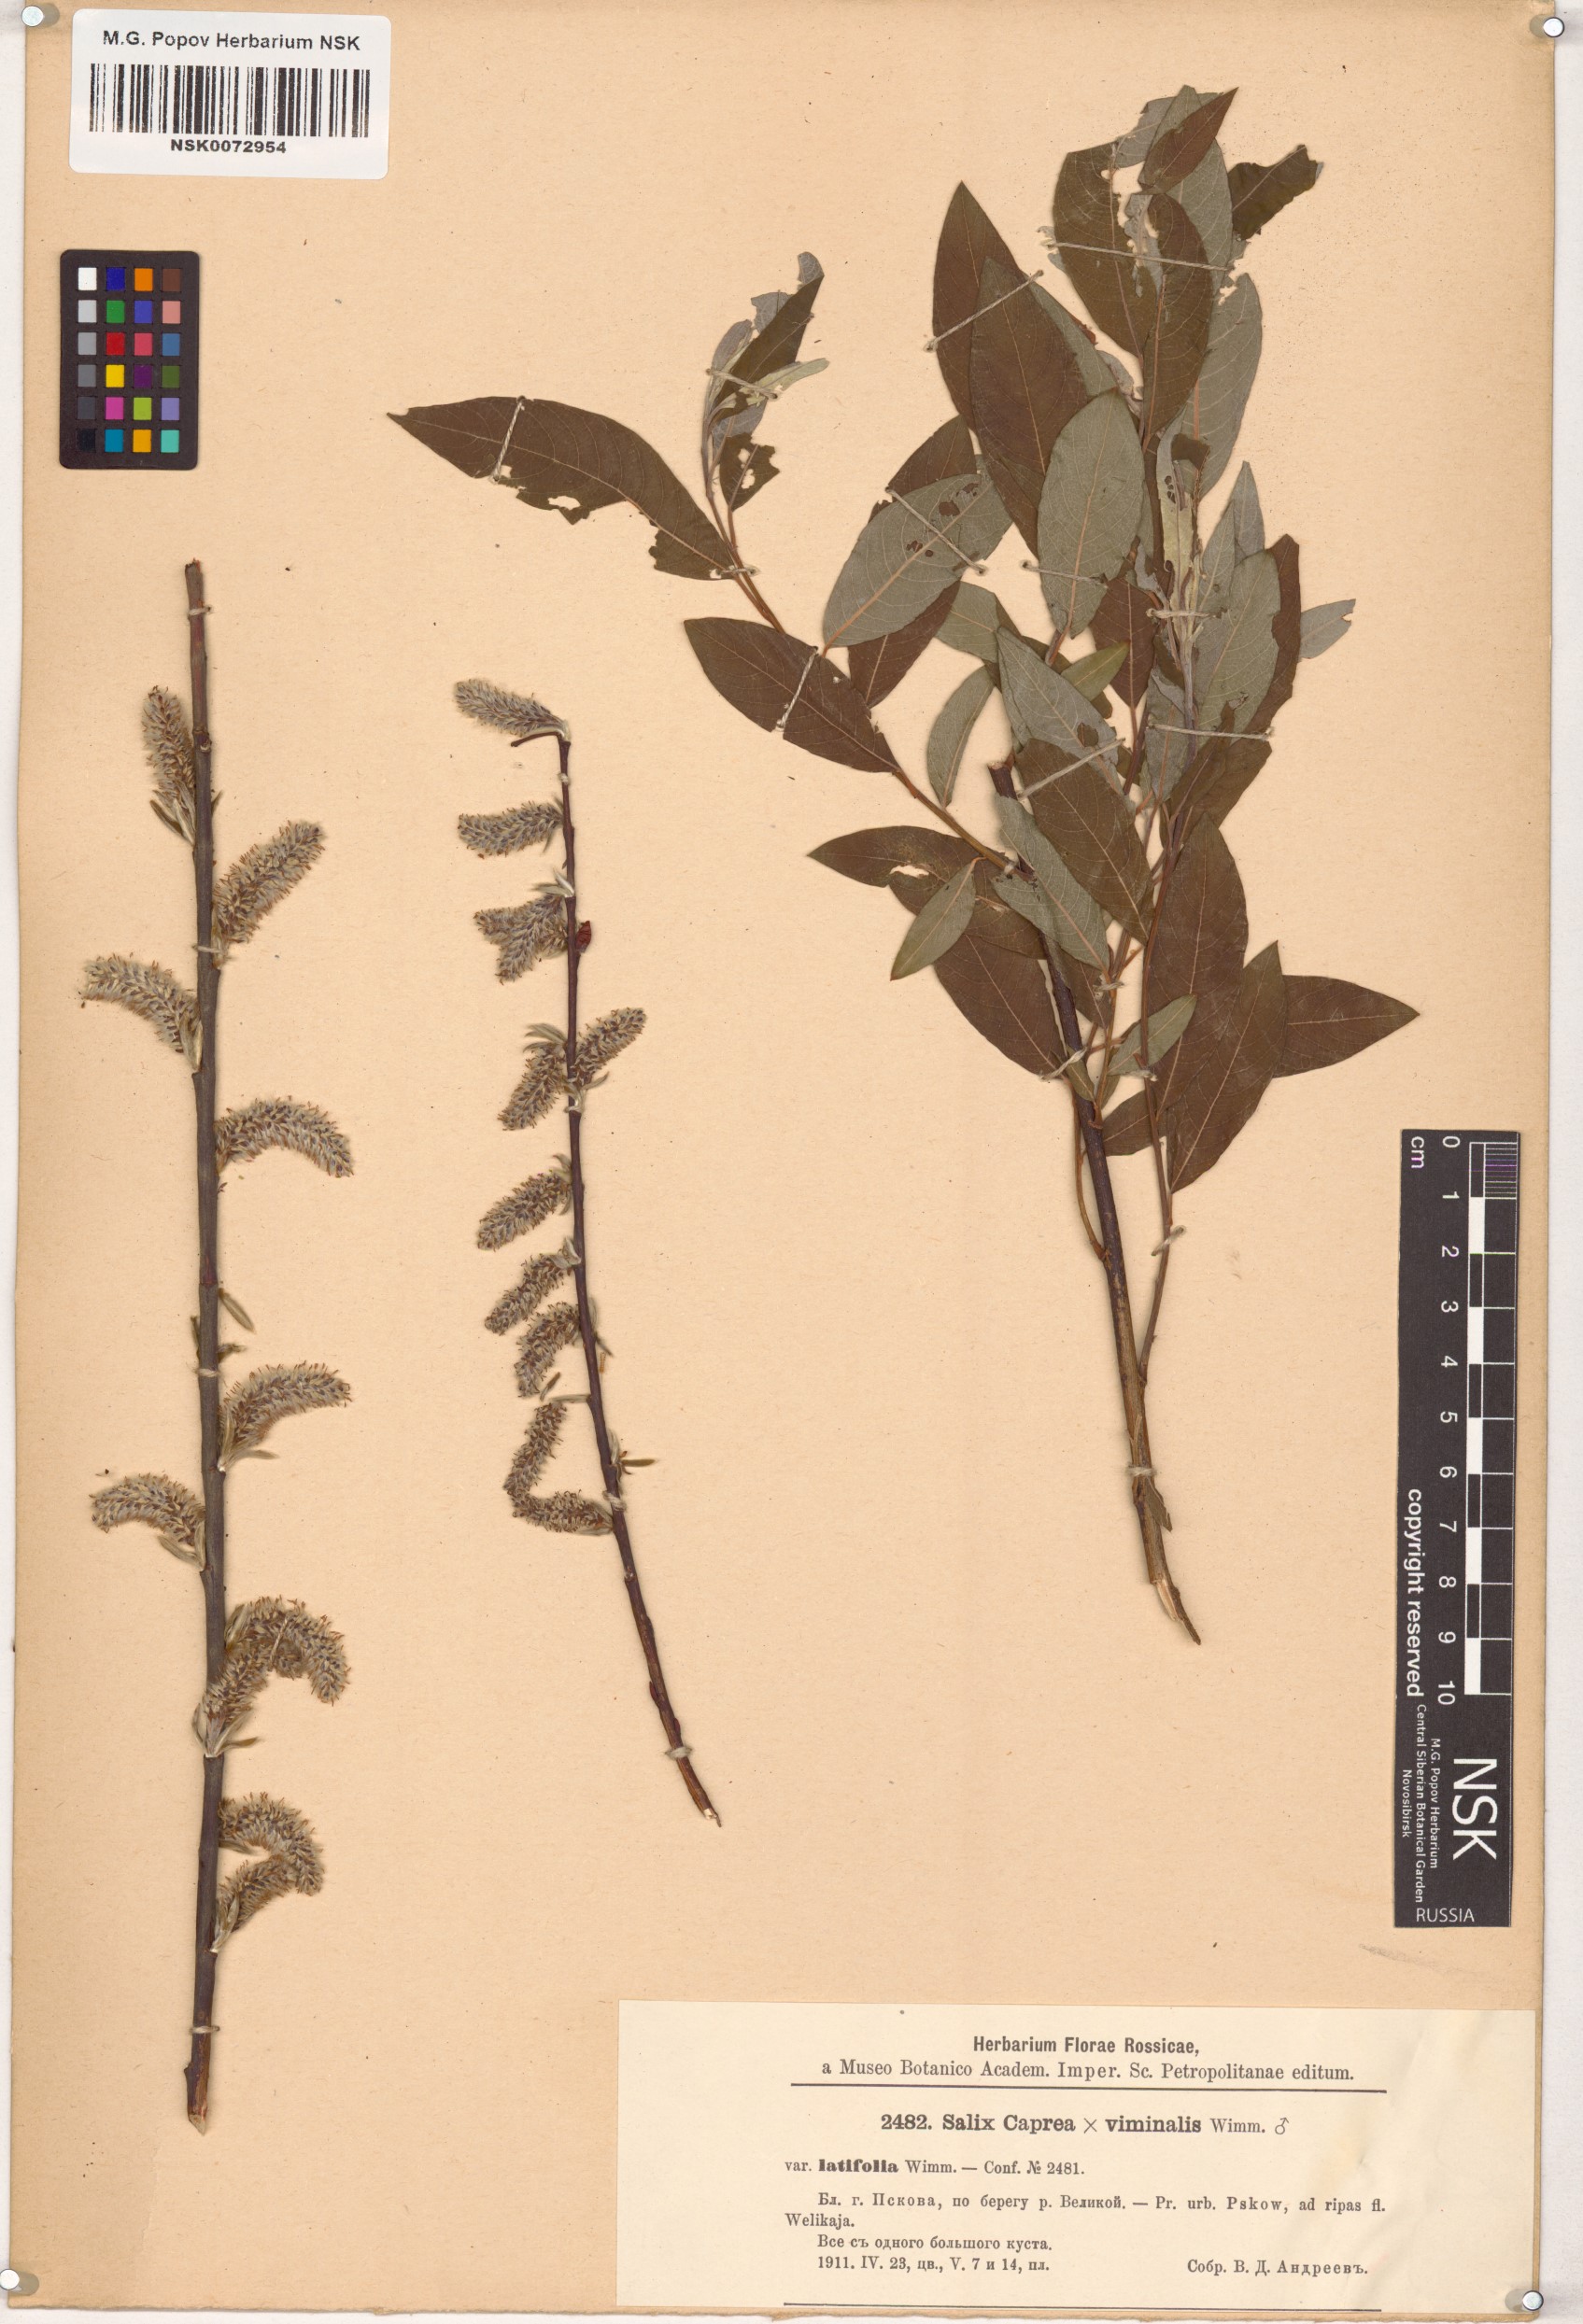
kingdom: Plantae
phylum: Tracheophyta
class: Magnoliopsida
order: Malpighiales
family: Salicaceae
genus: Salix
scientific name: Salix
